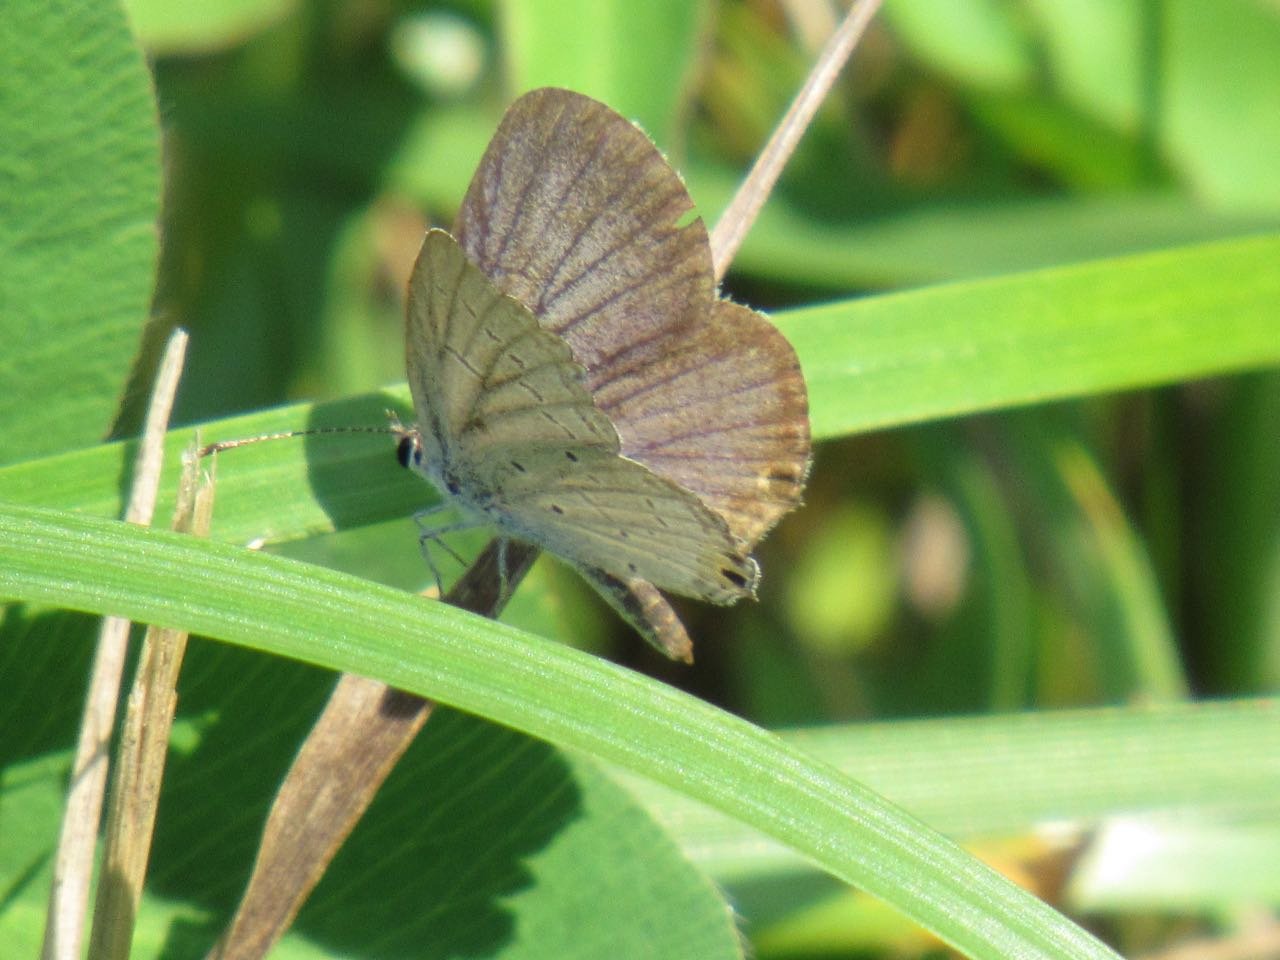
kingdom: Animalia
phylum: Arthropoda
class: Insecta
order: Lepidoptera
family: Lycaenidae
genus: Elkalyce
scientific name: Elkalyce comyntas
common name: Eastern Tailed-Blue
